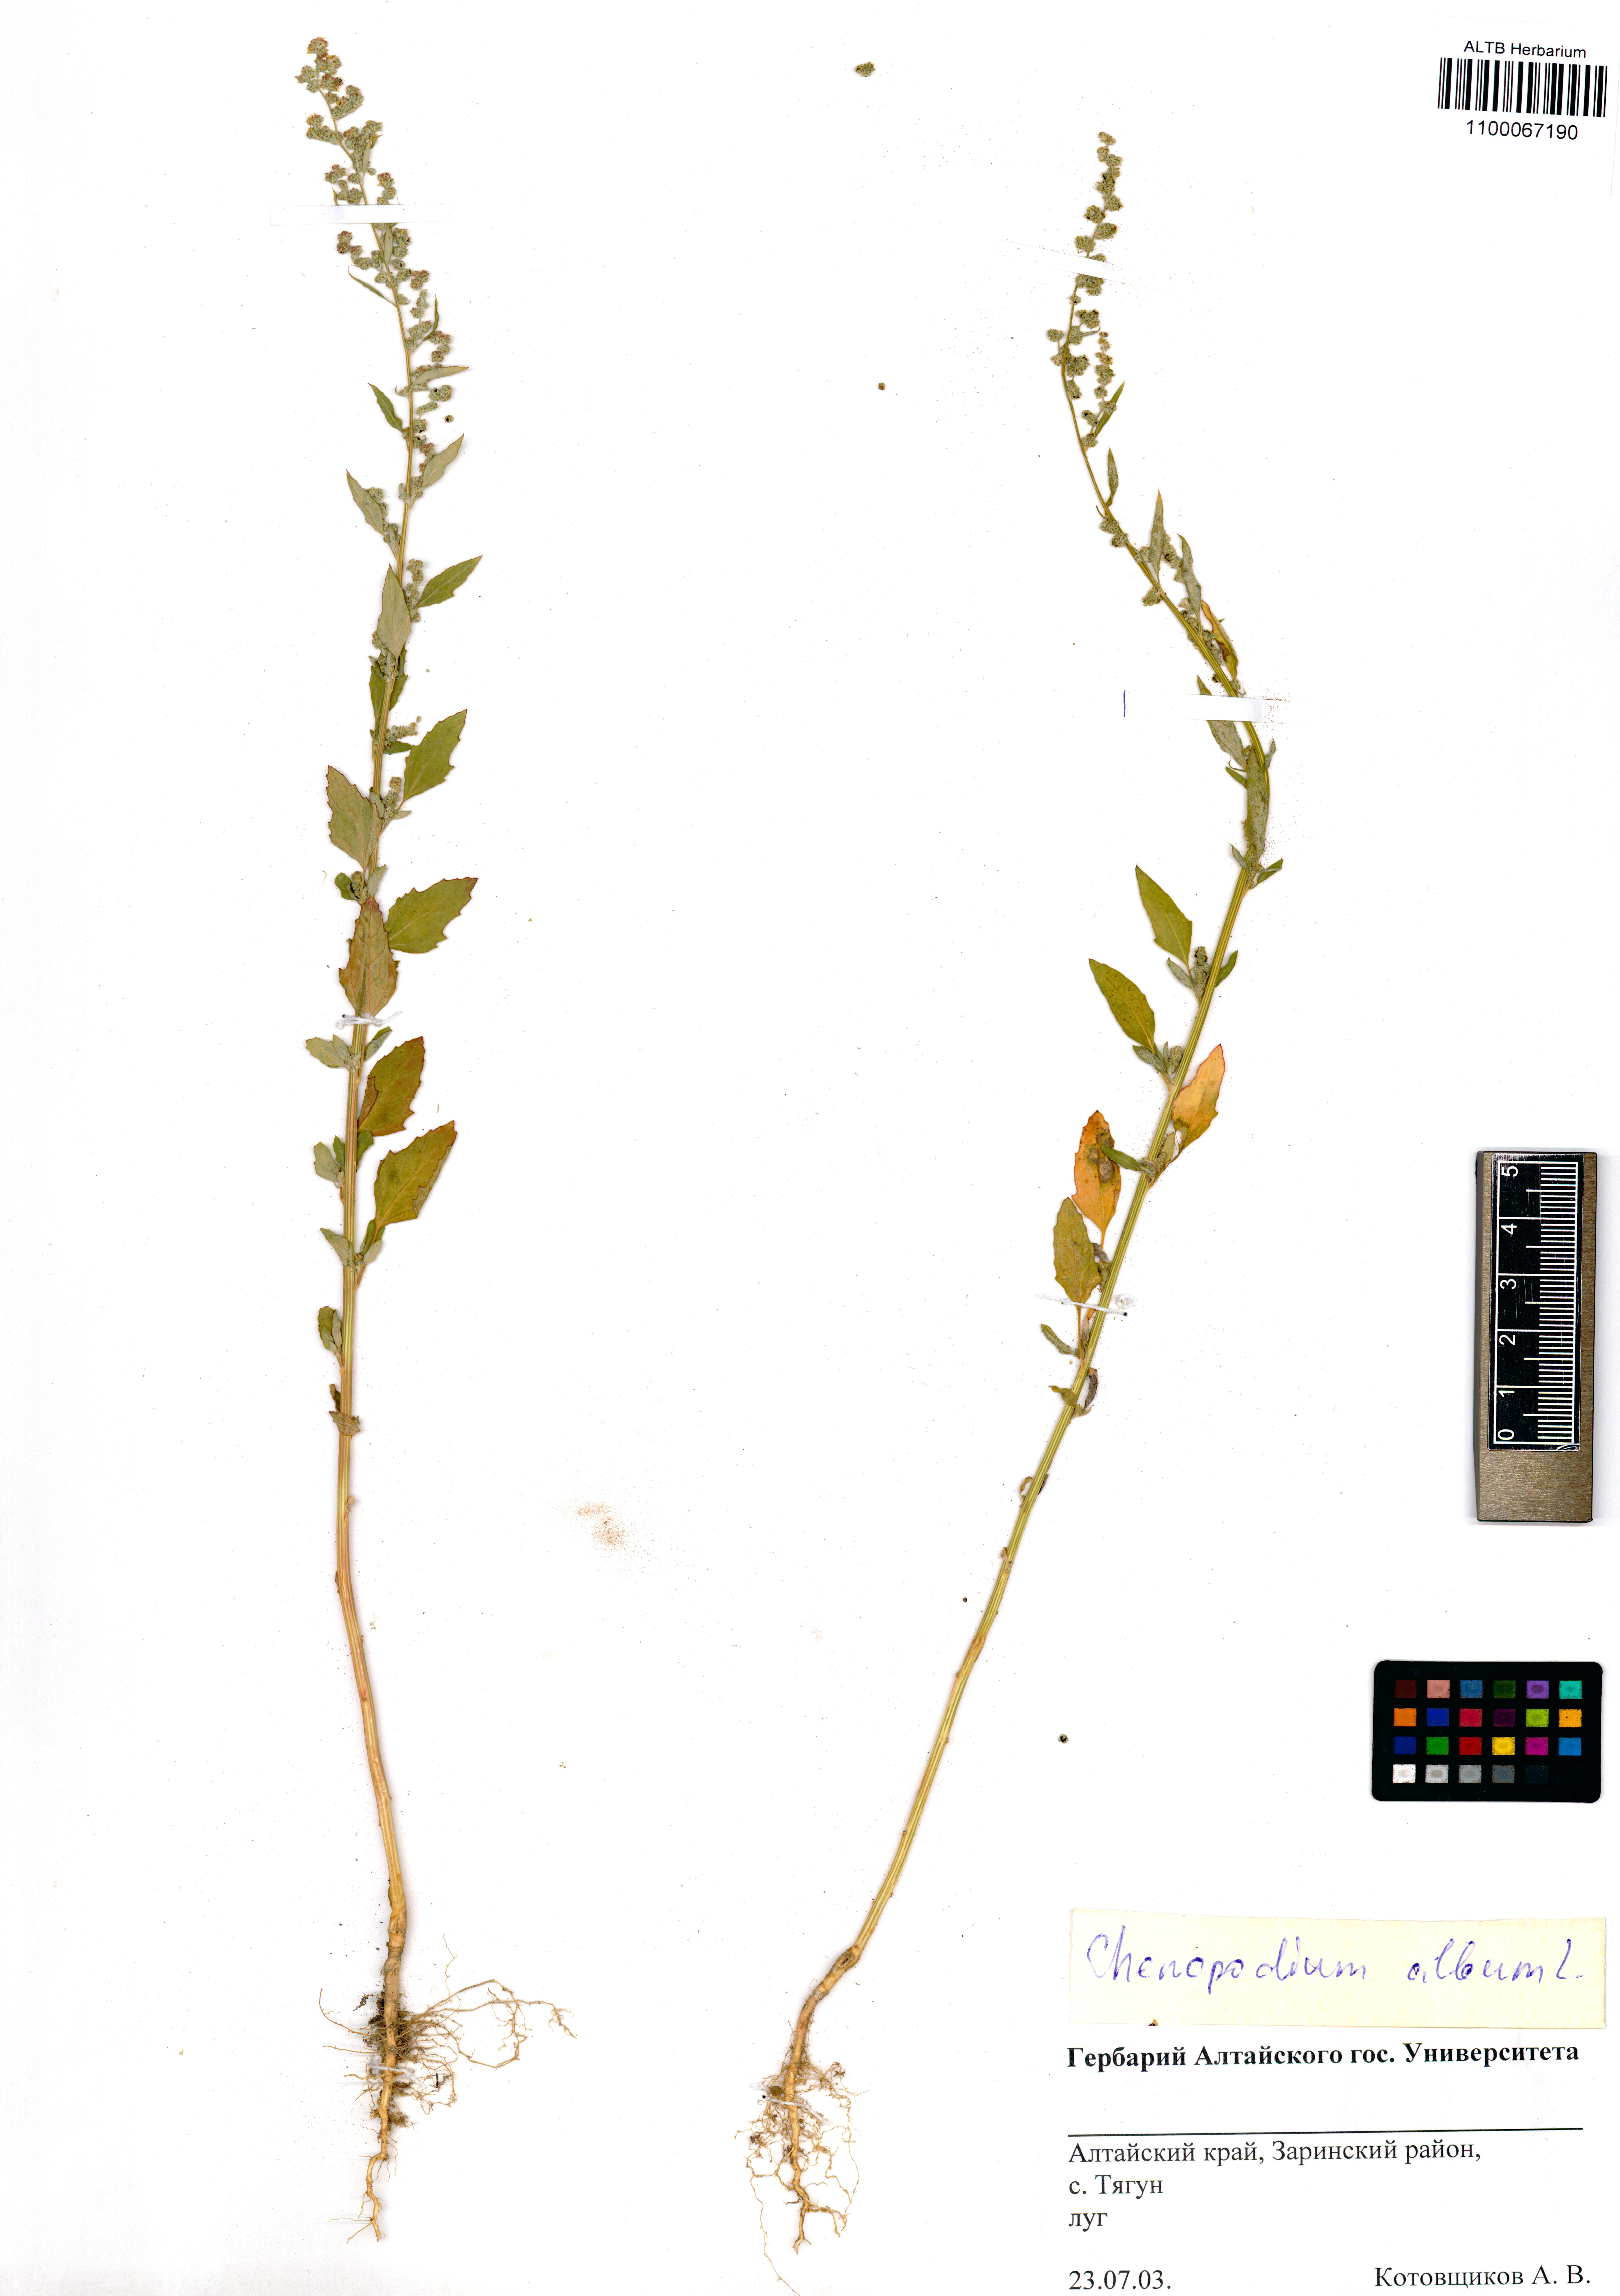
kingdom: Plantae
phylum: Tracheophyta
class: Magnoliopsida
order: Caryophyllales
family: Amaranthaceae
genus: Chenopodium
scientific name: Chenopodium album
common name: Fat-hen
